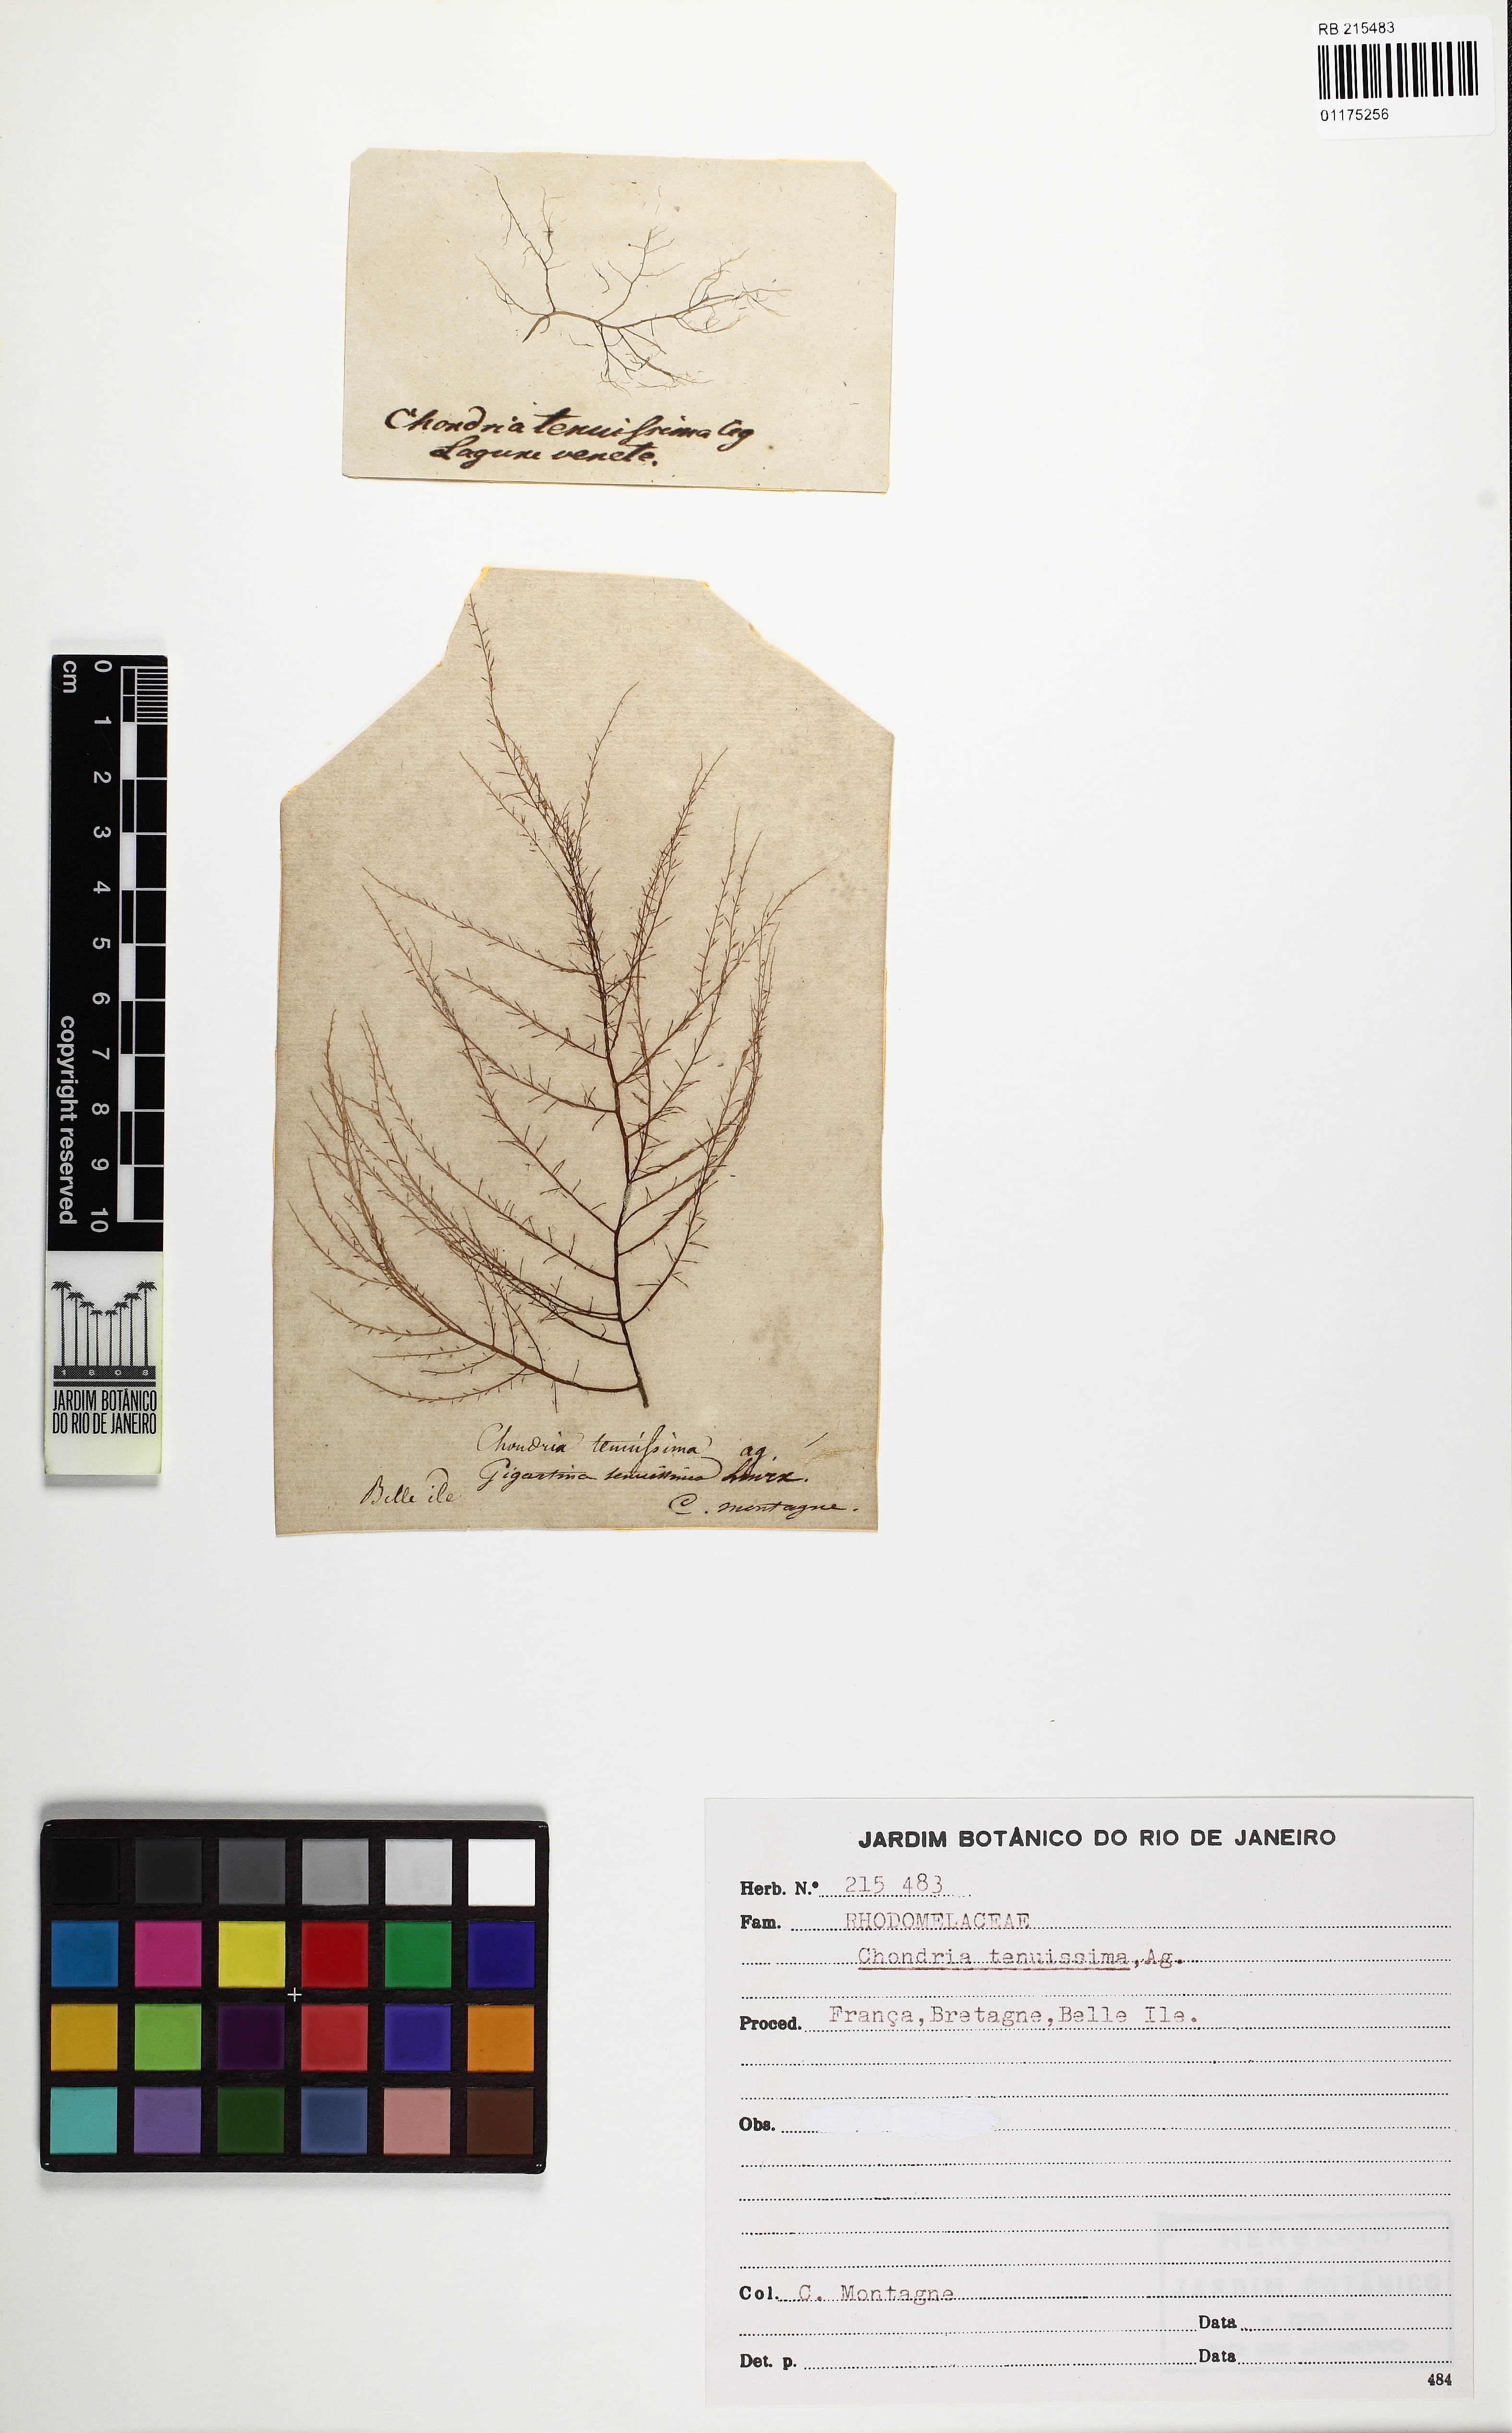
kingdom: Plantae
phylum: Rhodophyta
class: Florideophyceae
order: Ceramiales
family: Rhodomelaceae
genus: Chondria
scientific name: Chondria capillaris
